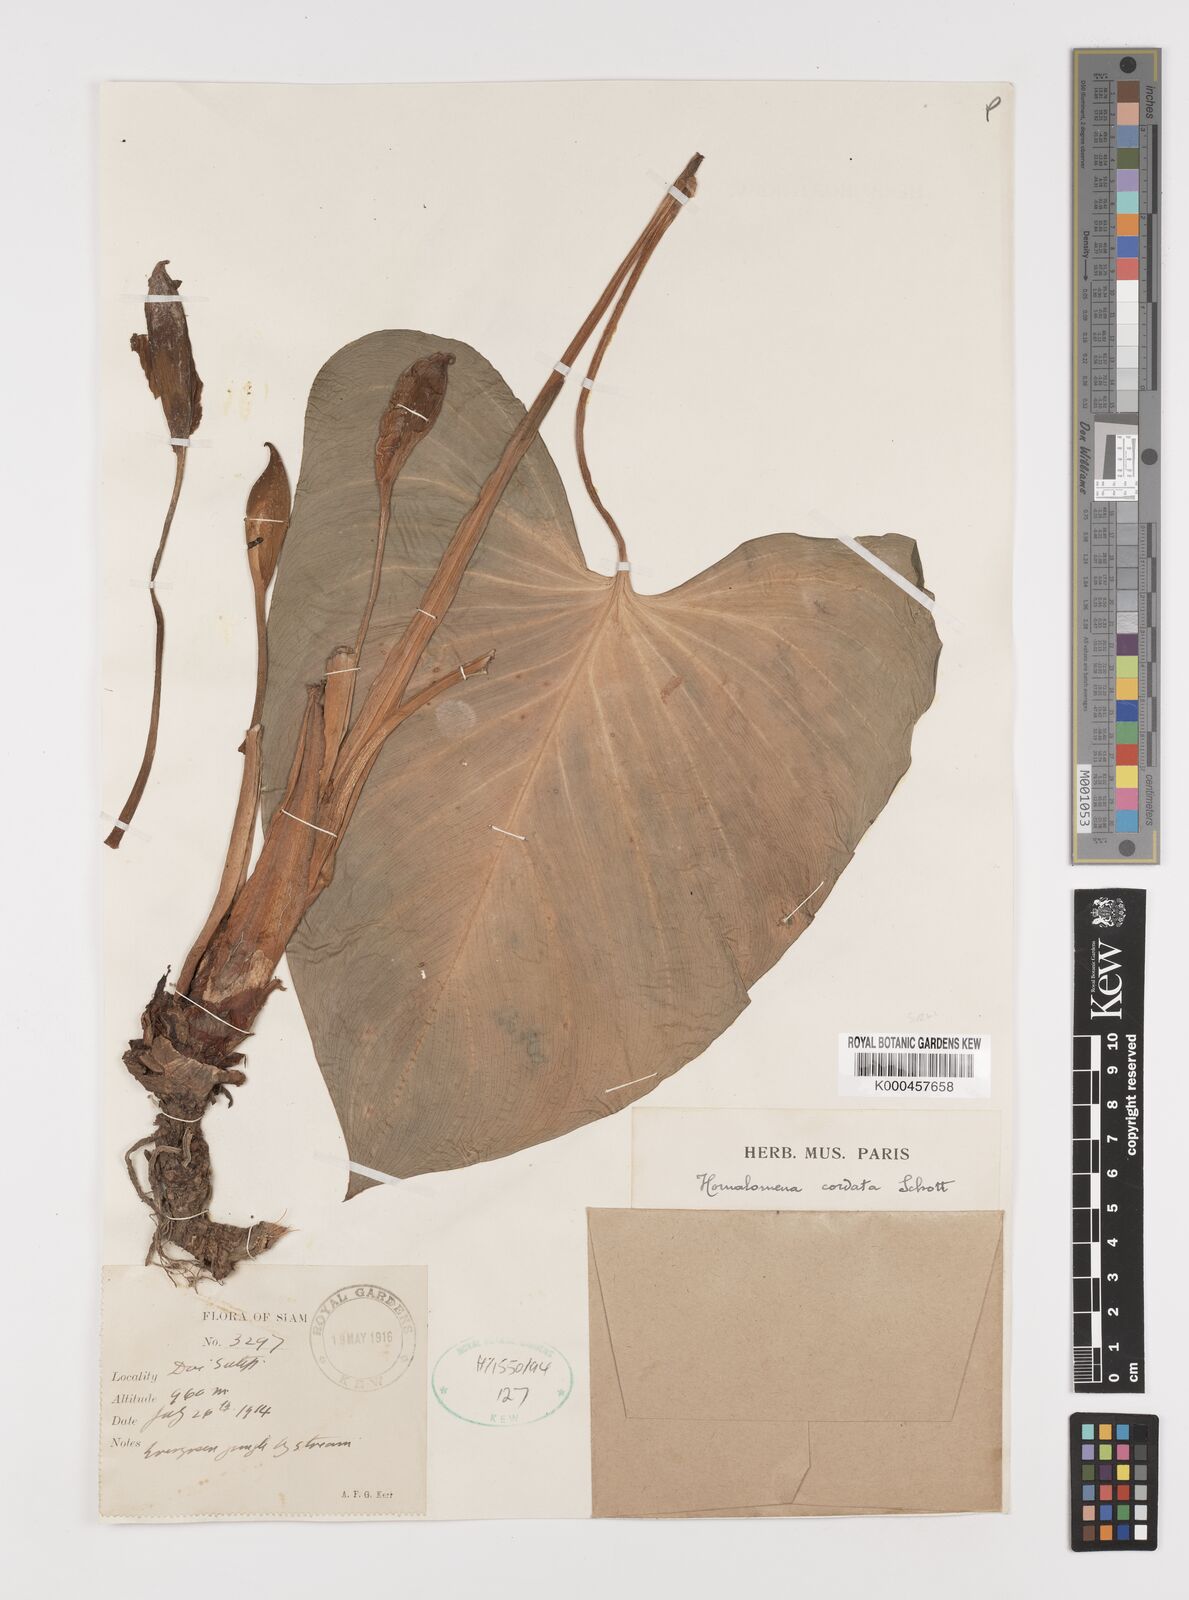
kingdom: Plantae
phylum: Tracheophyta
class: Liliopsida
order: Alismatales
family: Araceae
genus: Homalomena
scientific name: Homalomena cordata
